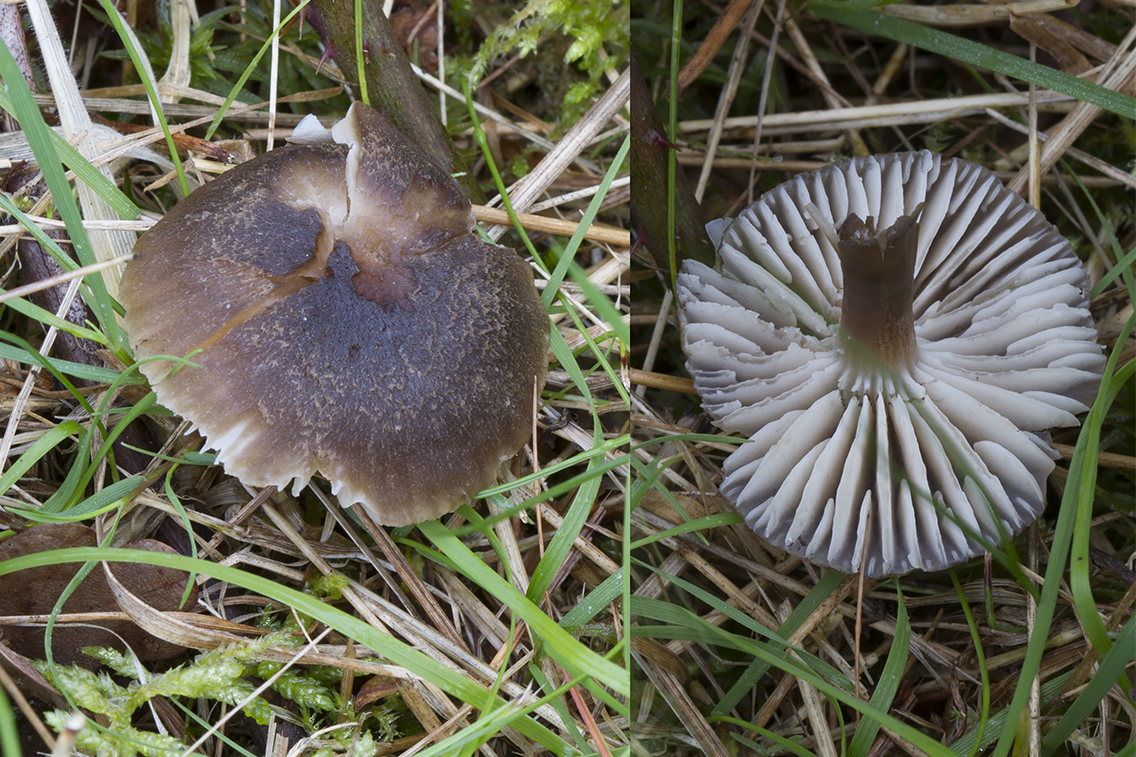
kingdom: Fungi
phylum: Basidiomycota
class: Agaricomycetes
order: Agaricales
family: Hygrophoraceae
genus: Neohygrocybe
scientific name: Neohygrocybe nitrata
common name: stinkende vokshat
